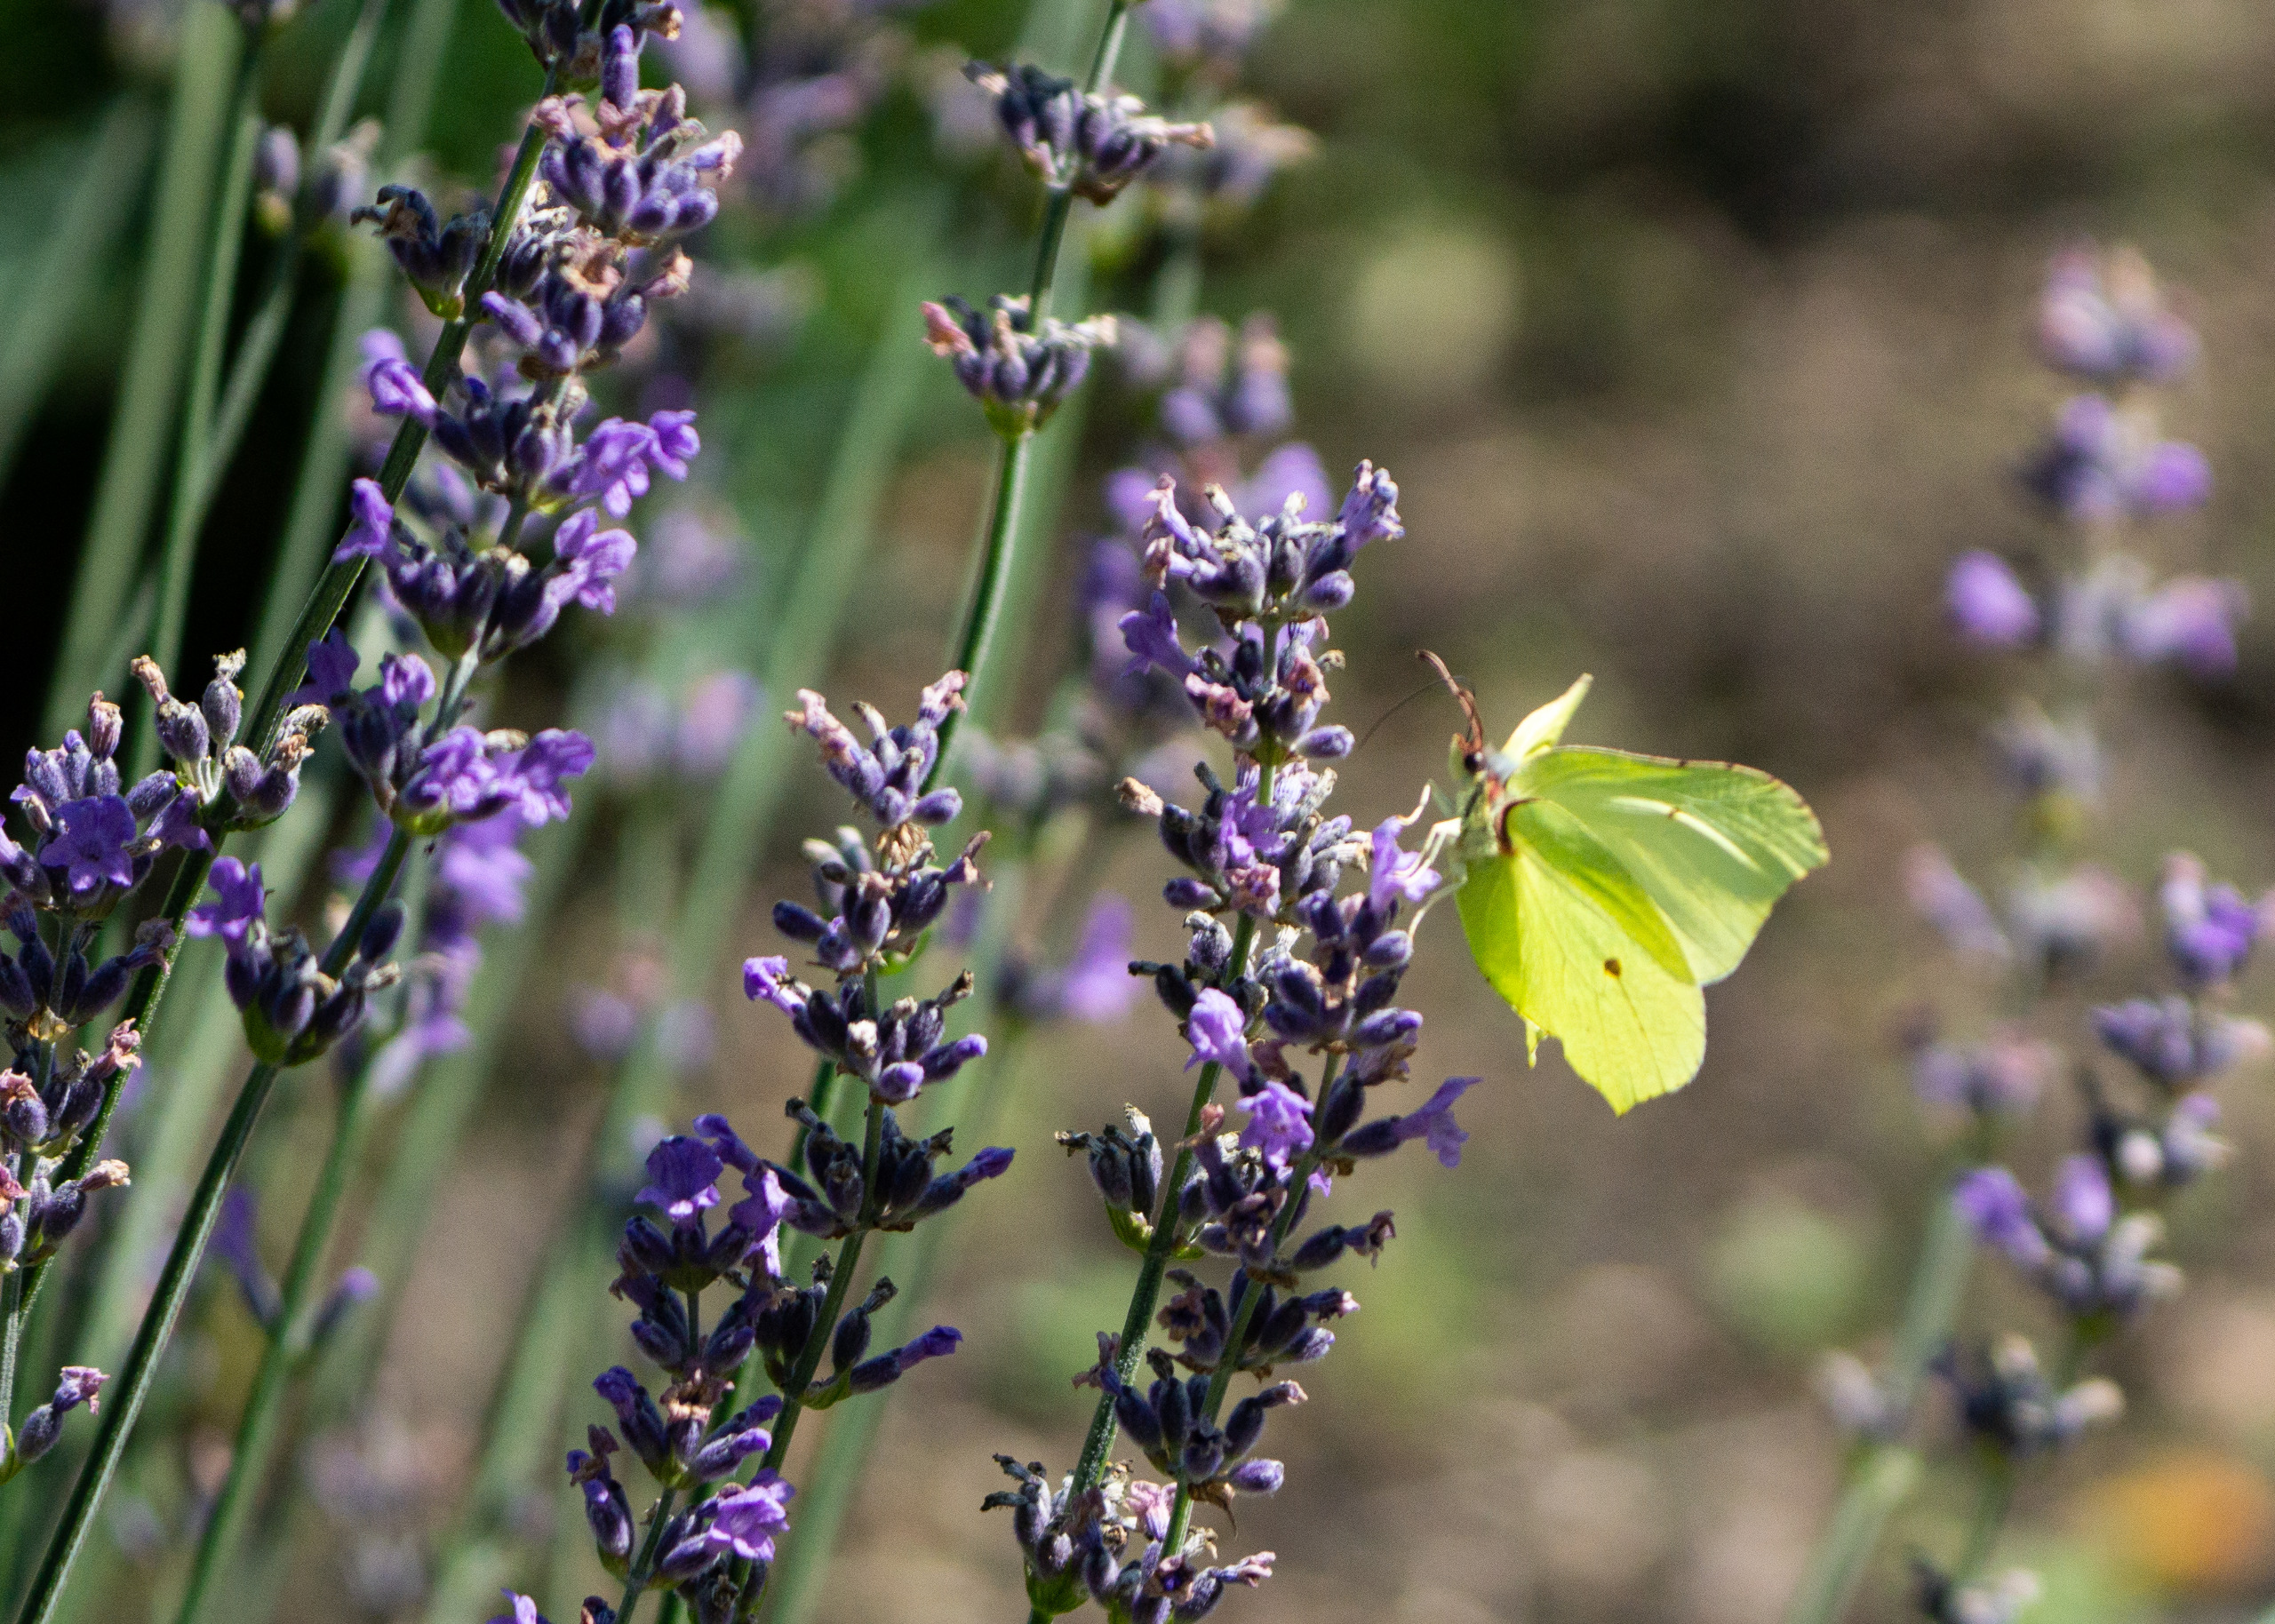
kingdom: Animalia
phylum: Arthropoda
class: Insecta
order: Lepidoptera
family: Pieridae
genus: Gonepteryx
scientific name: Gonepteryx rhamni
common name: Citronsommerfugl
